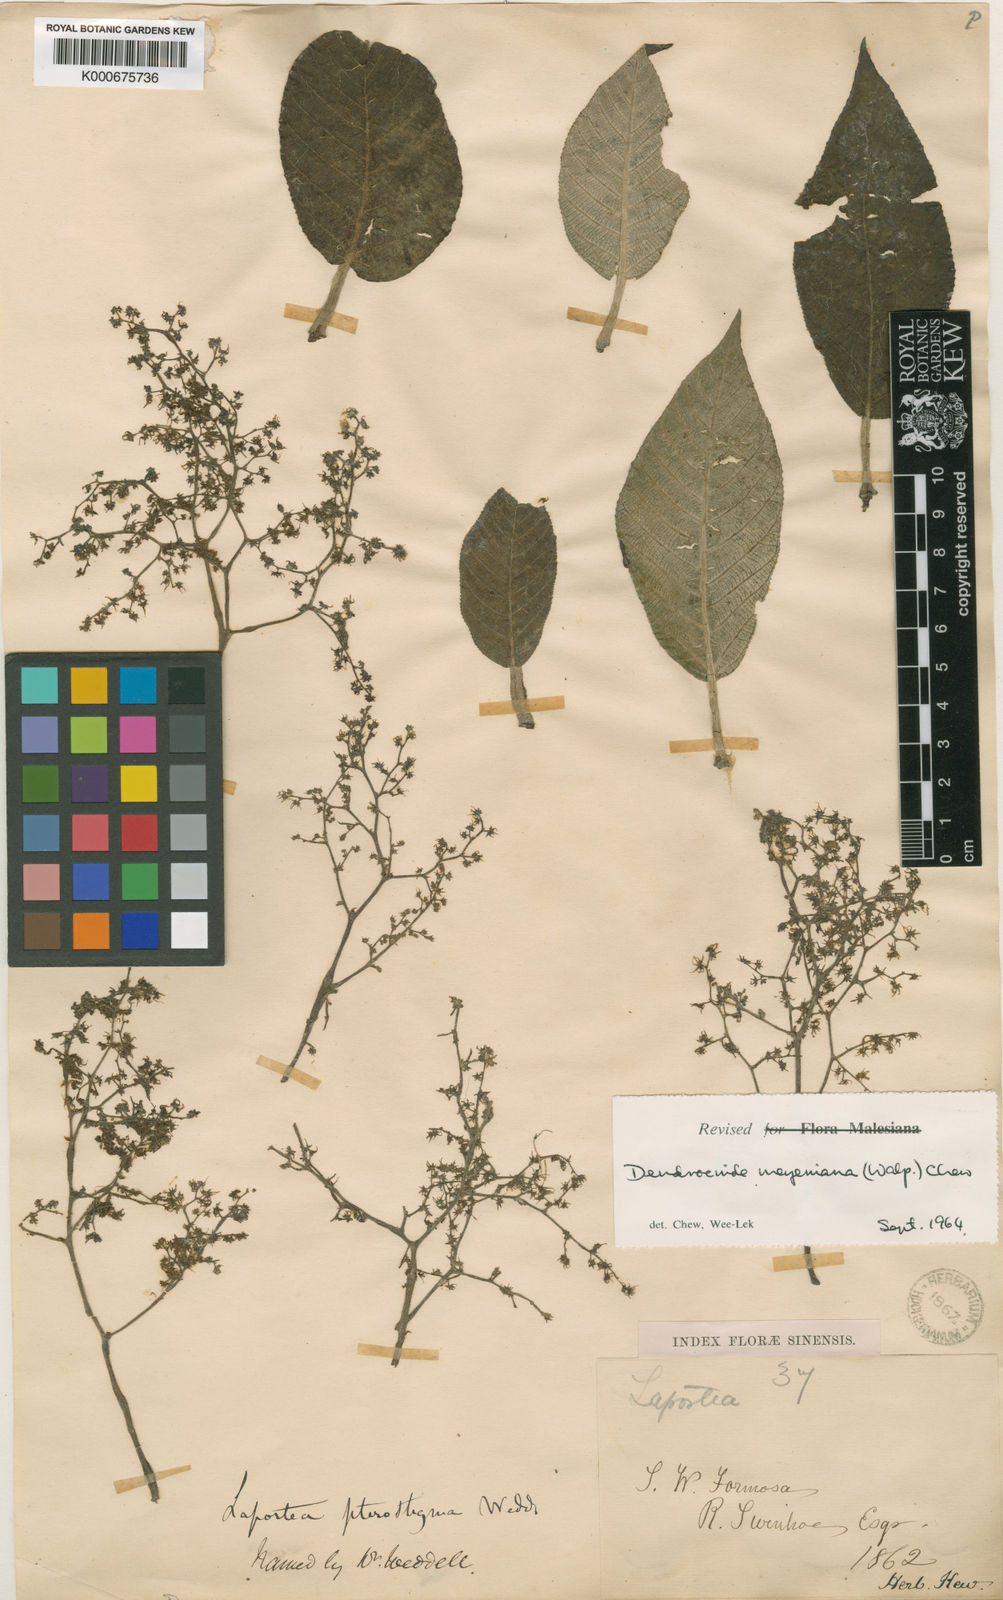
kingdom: Plantae
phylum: Tracheophyta
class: Magnoliopsida
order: Rosales
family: Urticaceae
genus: Dendrocnide
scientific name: Dendrocnide meyeniana
